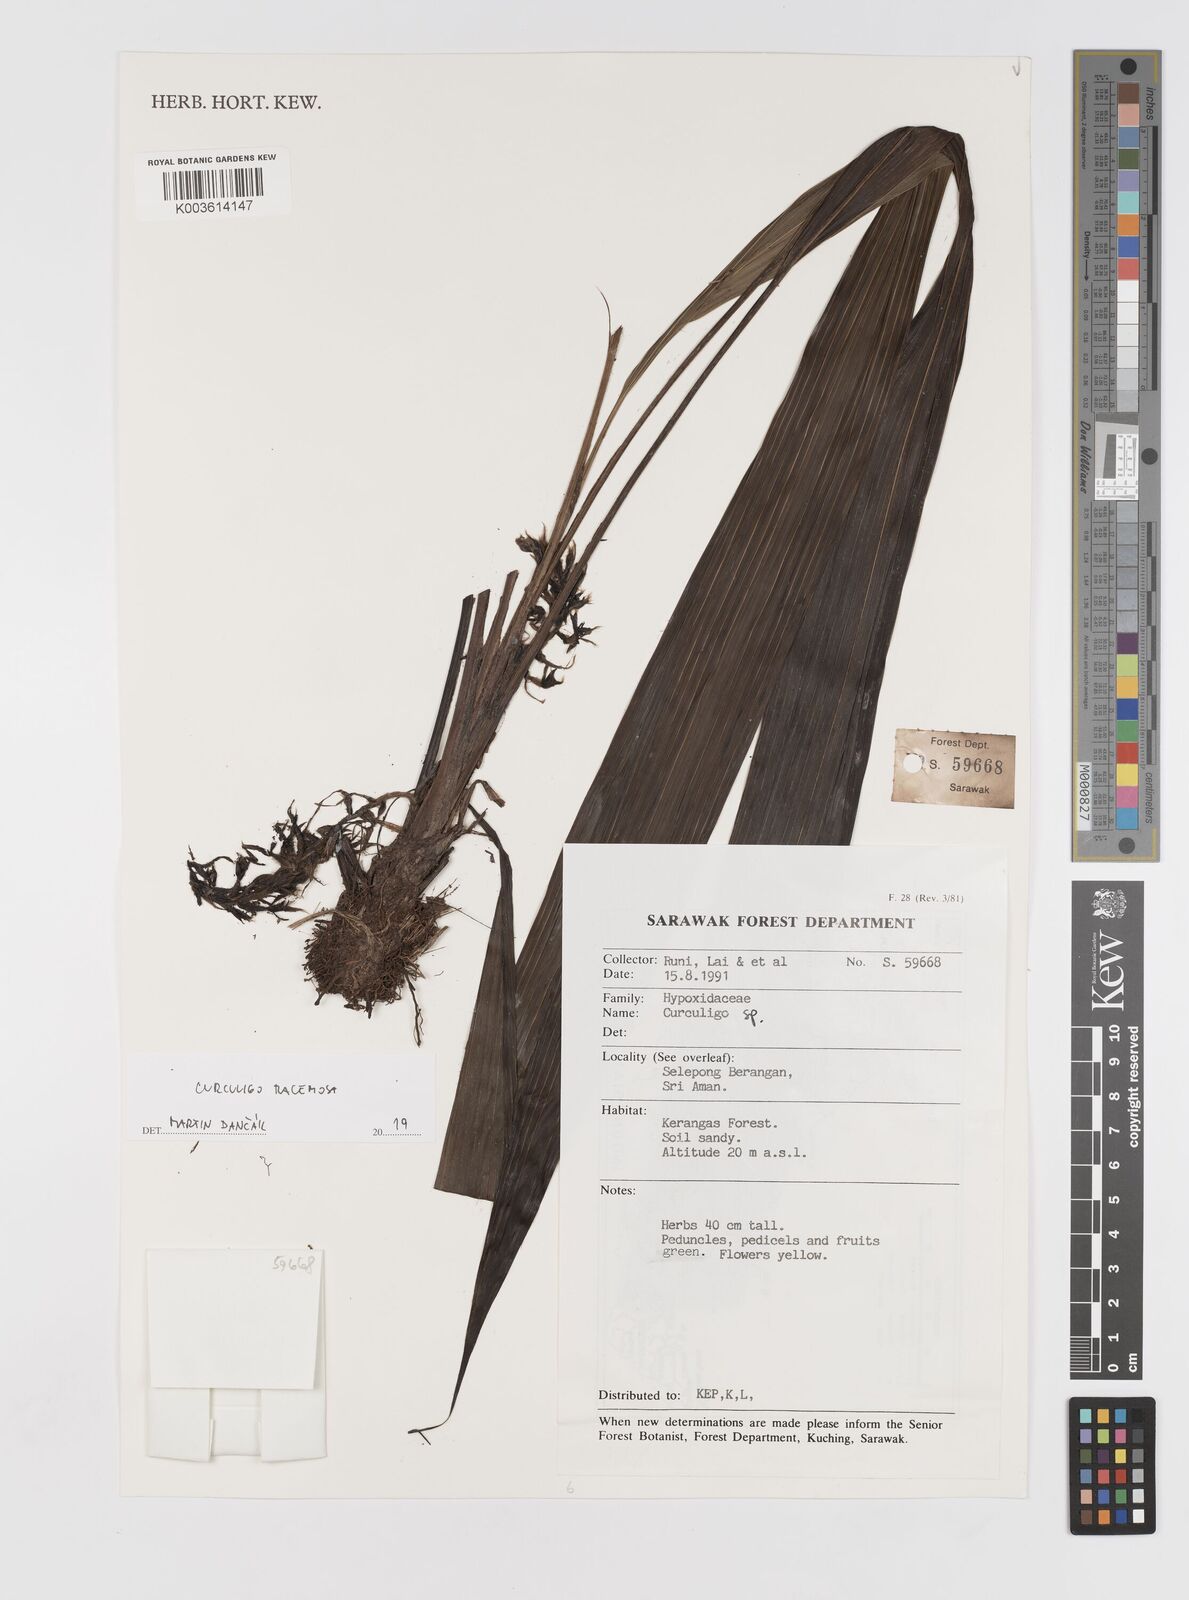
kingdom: Plantae
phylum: Tracheophyta
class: Liliopsida
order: Asparagales
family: Hypoxidaceae
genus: Curculigo
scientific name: Curculigo racemosa
